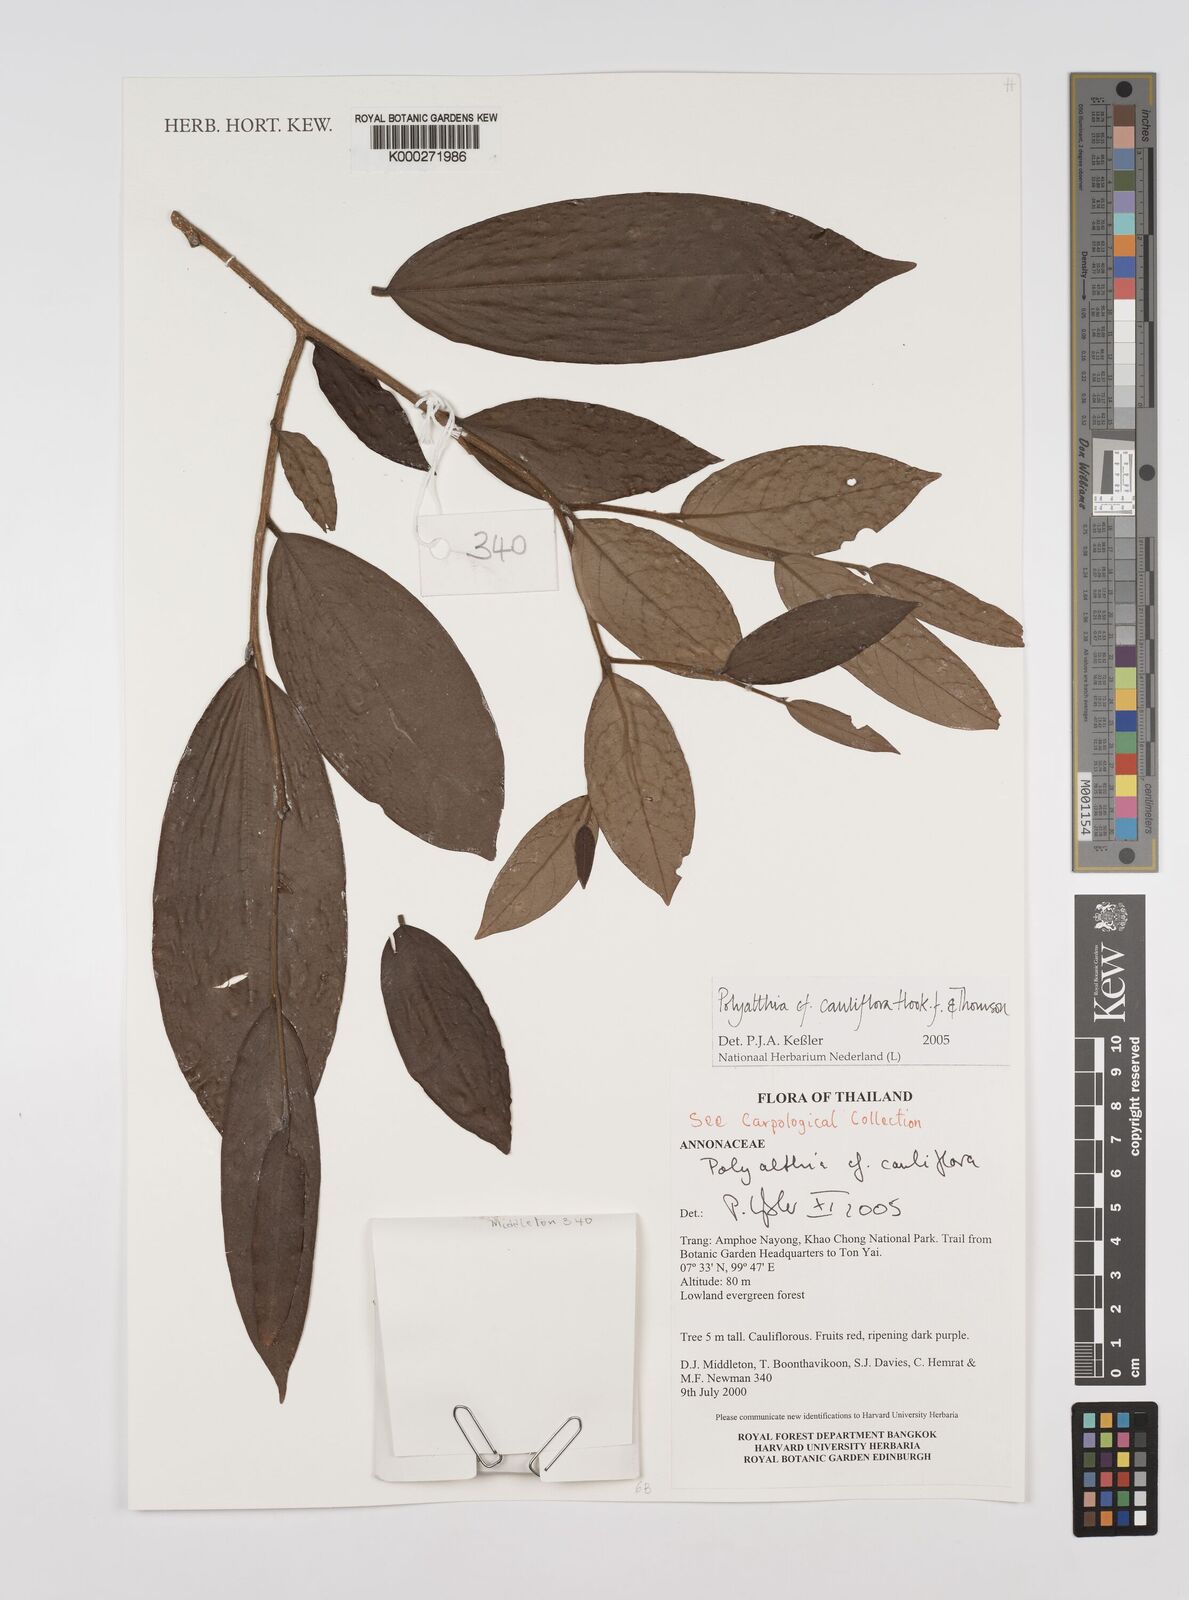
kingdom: Plantae
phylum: Tracheophyta
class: Magnoliopsida
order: Magnoliales
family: Annonaceae
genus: Polyalthia
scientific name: Polyalthia cauliflora
